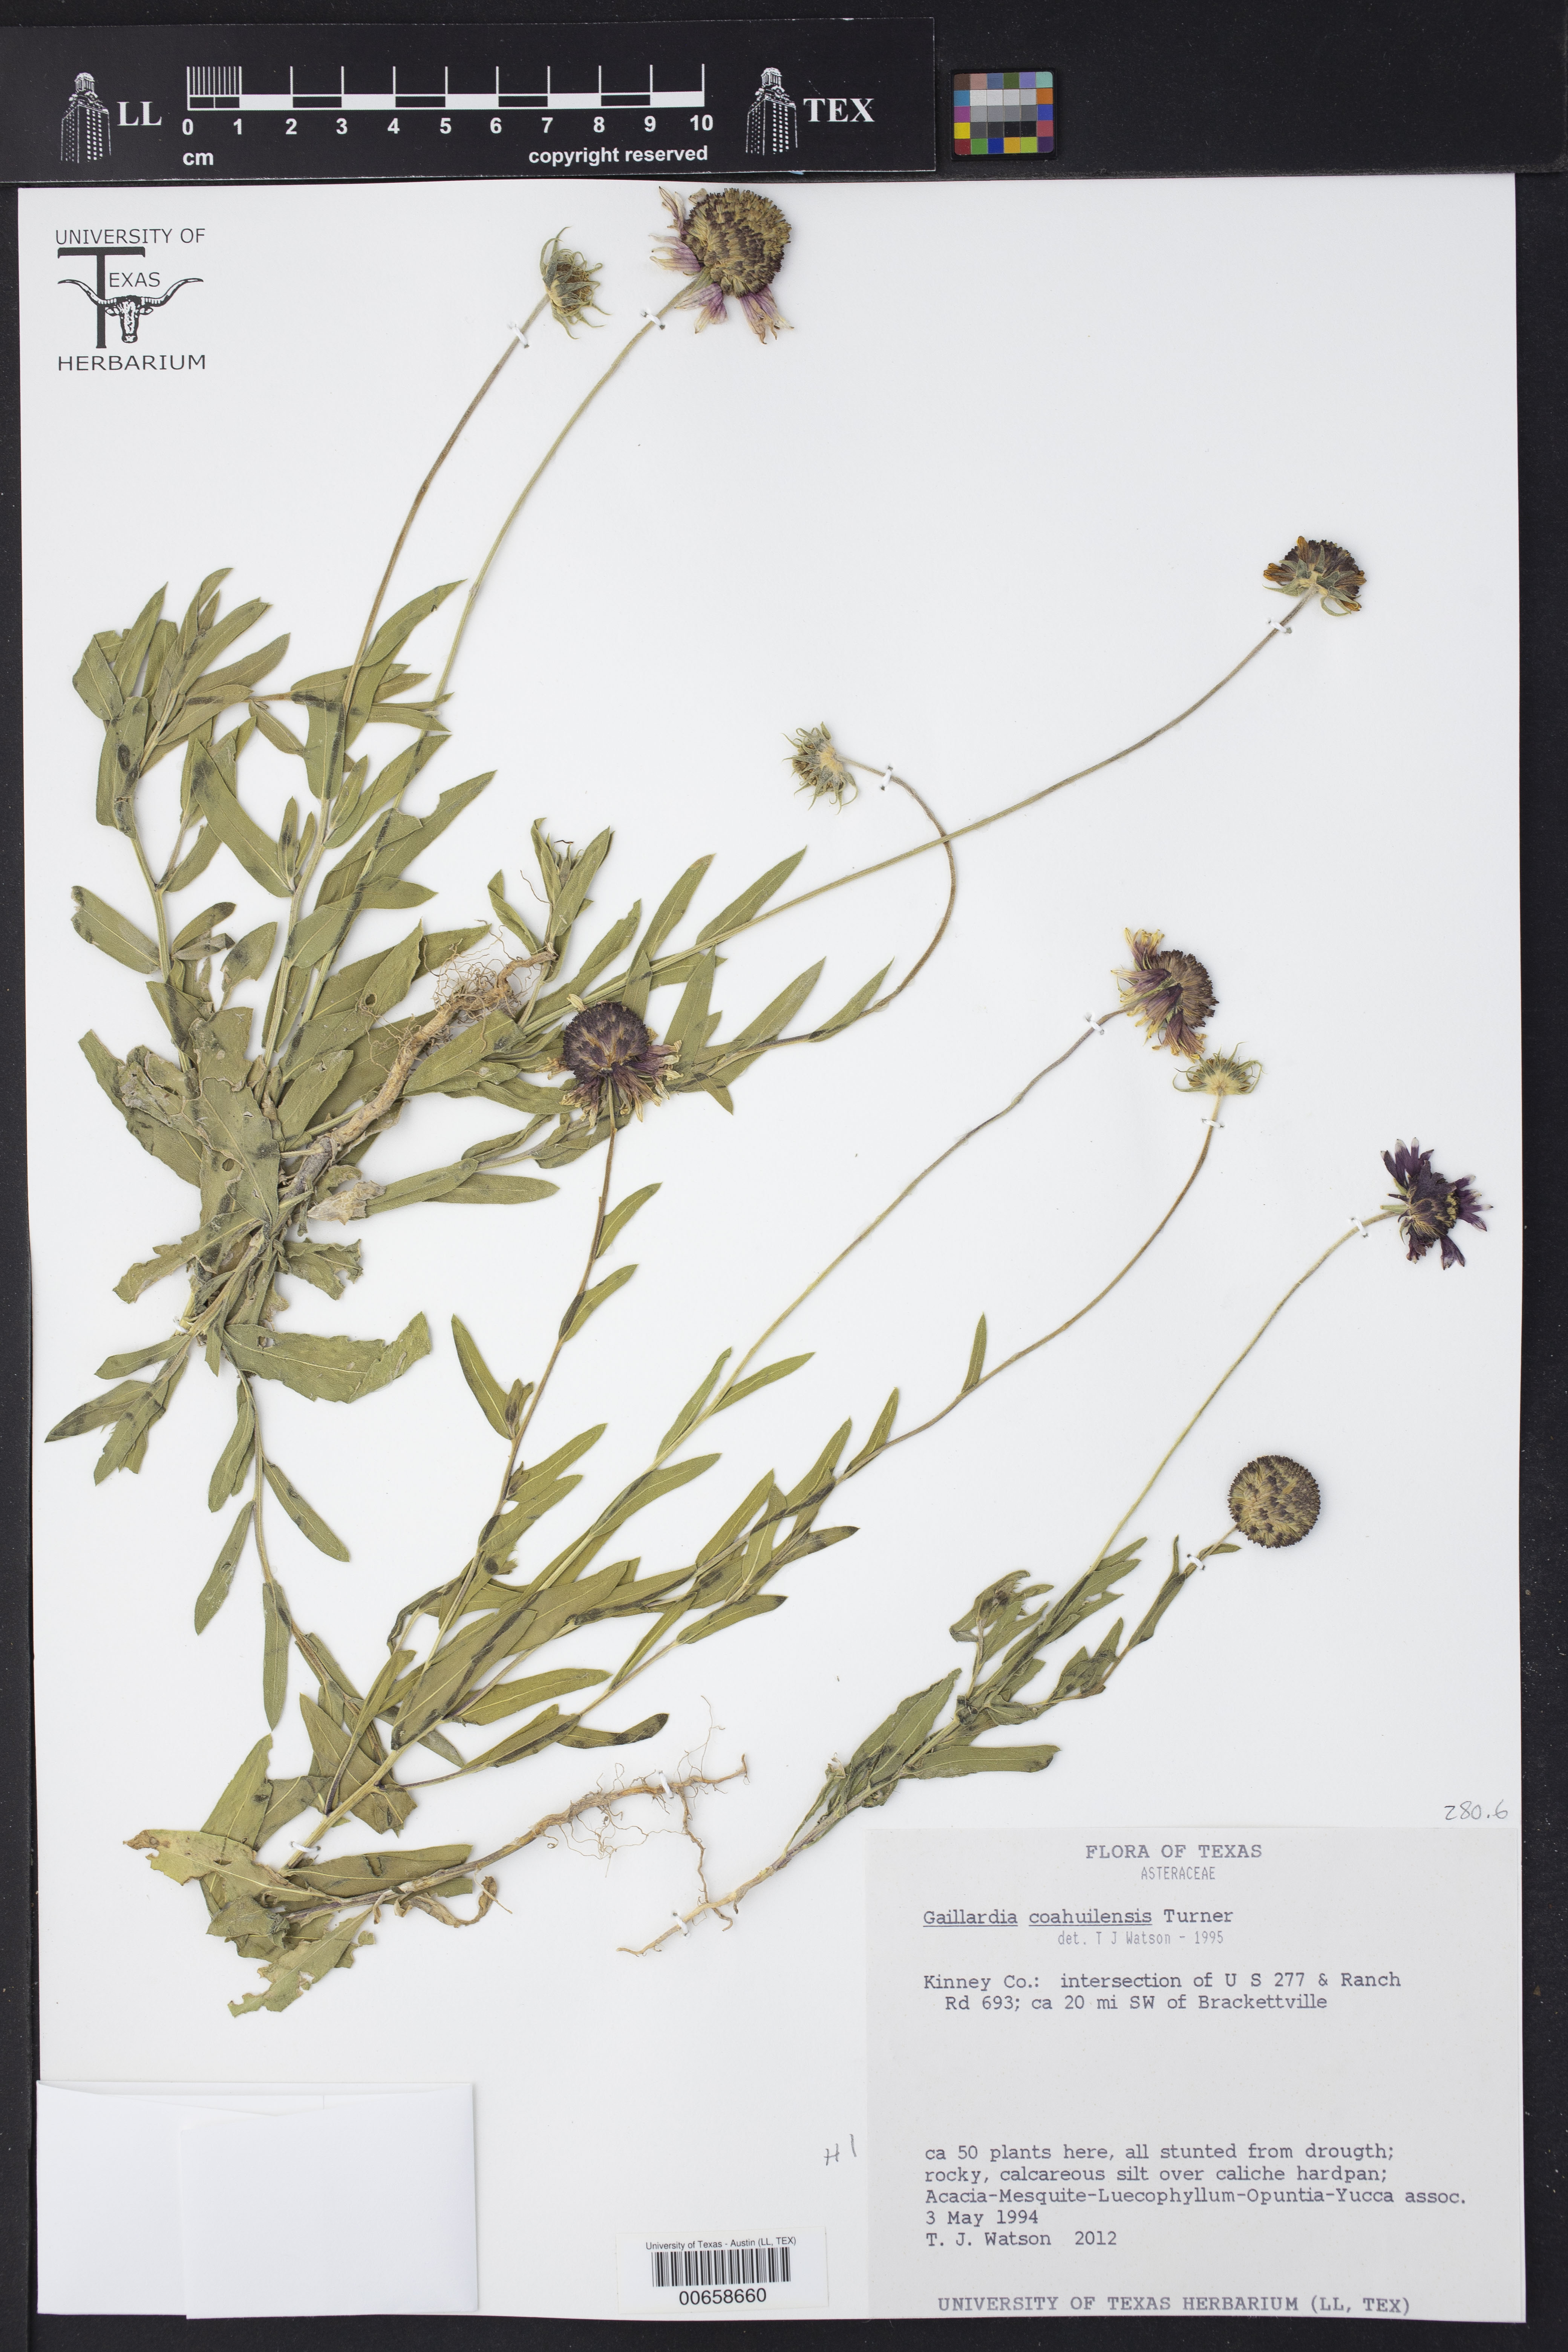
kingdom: Plantae
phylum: Tracheophyta
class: Magnoliopsida
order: Asterales
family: Asteraceae
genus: Gaillardia
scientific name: Gaillardia coahuilensis
